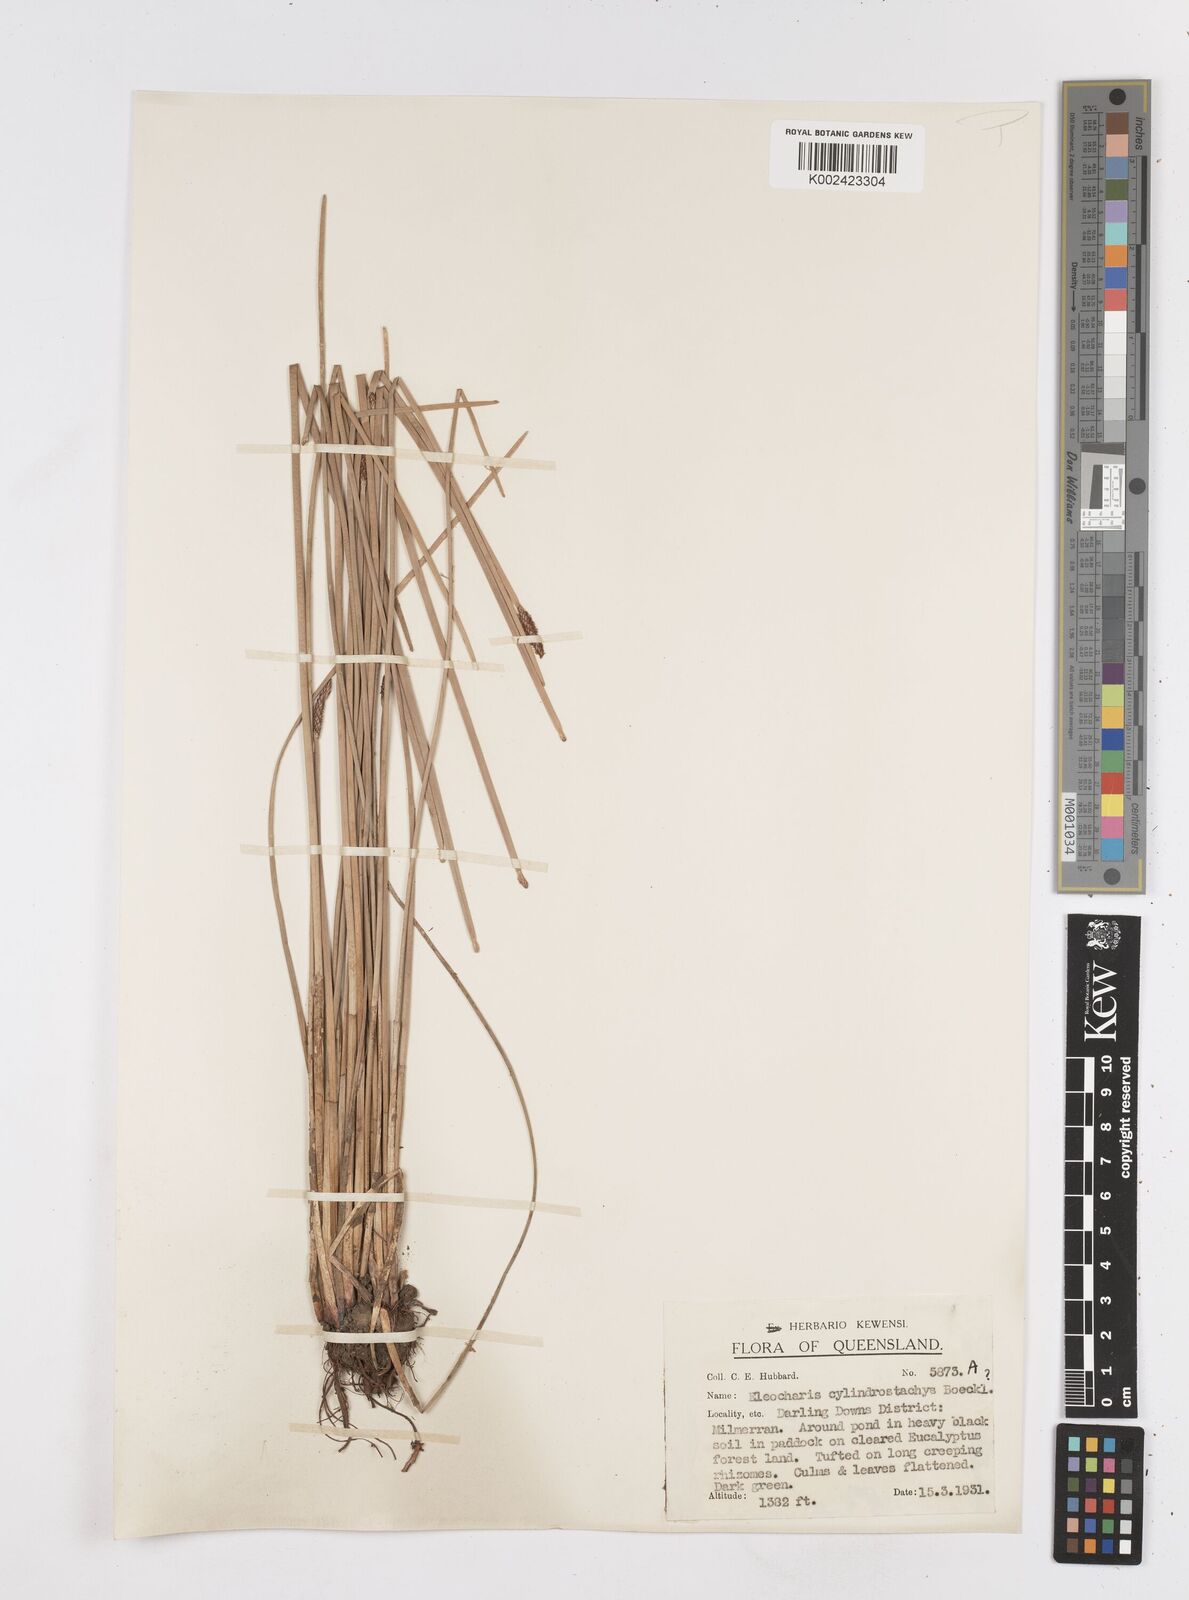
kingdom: Plantae
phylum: Tracheophyta
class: Liliopsida
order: Poales
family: Cyperaceae
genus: Eleocharis
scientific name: Eleocharis cylindrostachys
